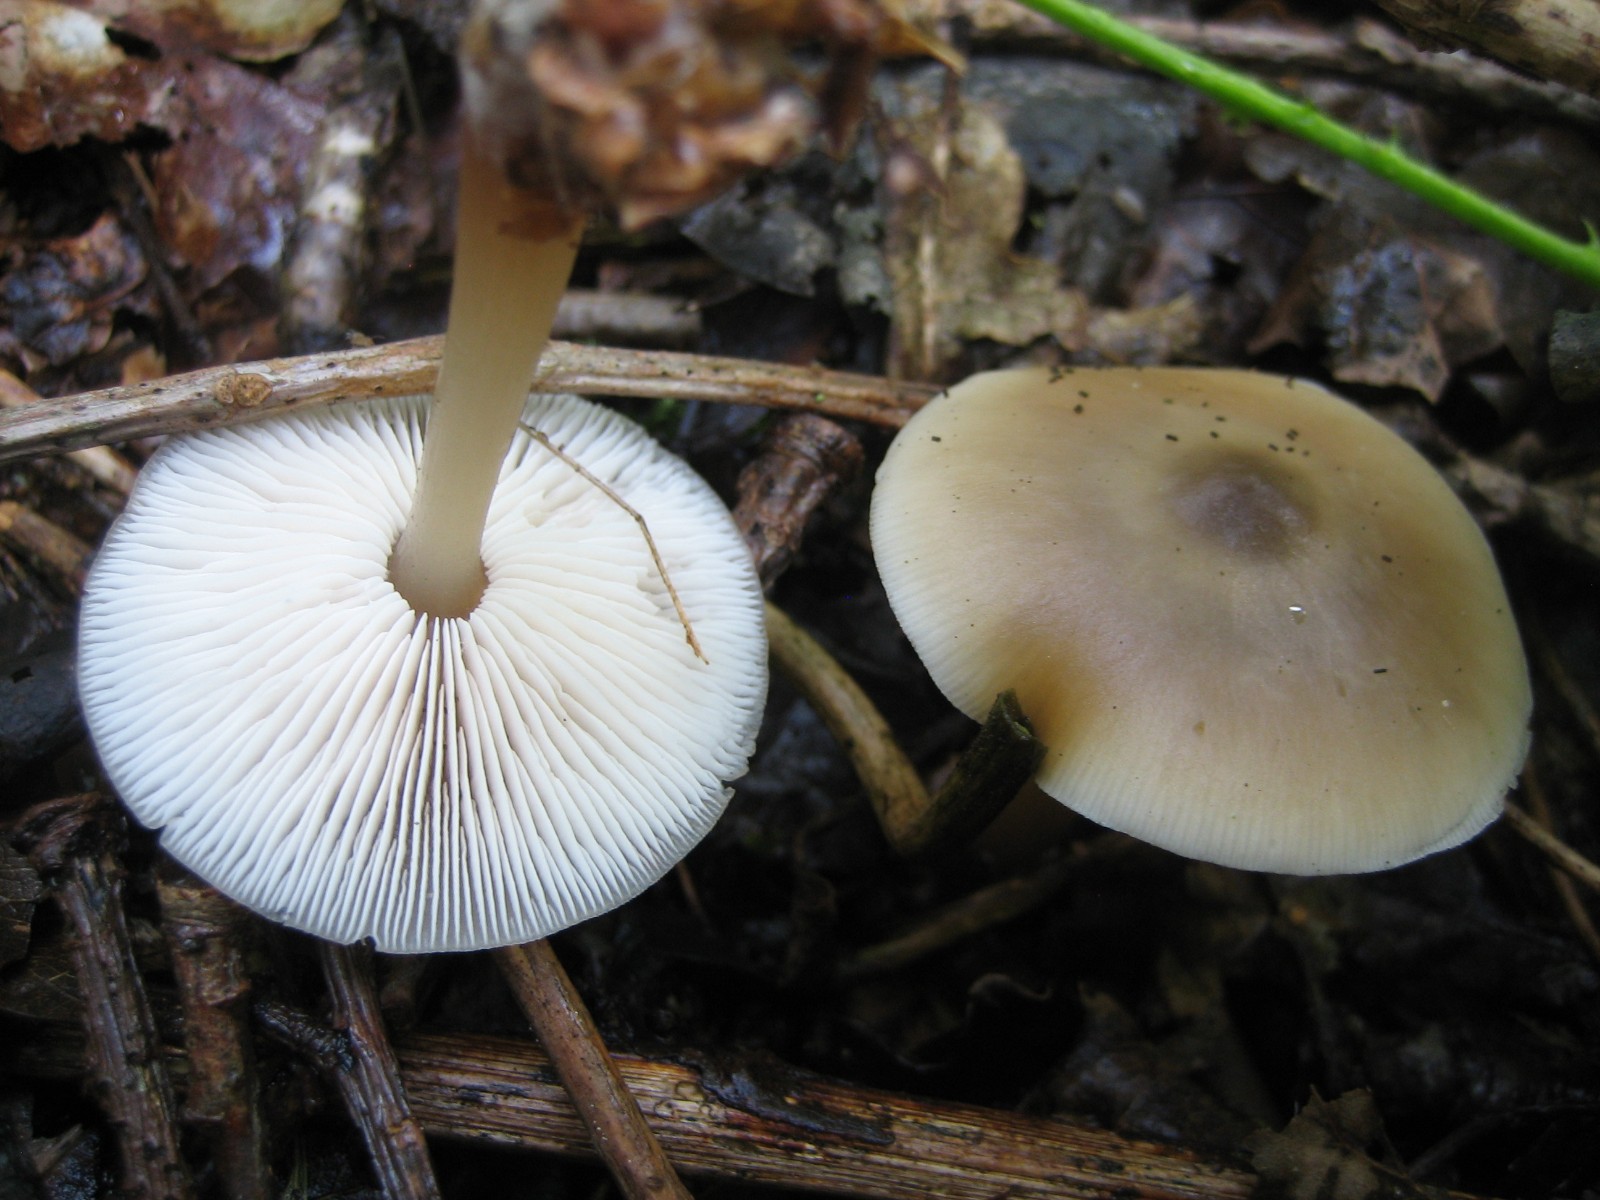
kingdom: Fungi
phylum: Basidiomycota
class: Agaricomycetes
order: Agaricales
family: Omphalotaceae
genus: Rhodocollybia
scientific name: Rhodocollybia asema
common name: horngrå fladhat
